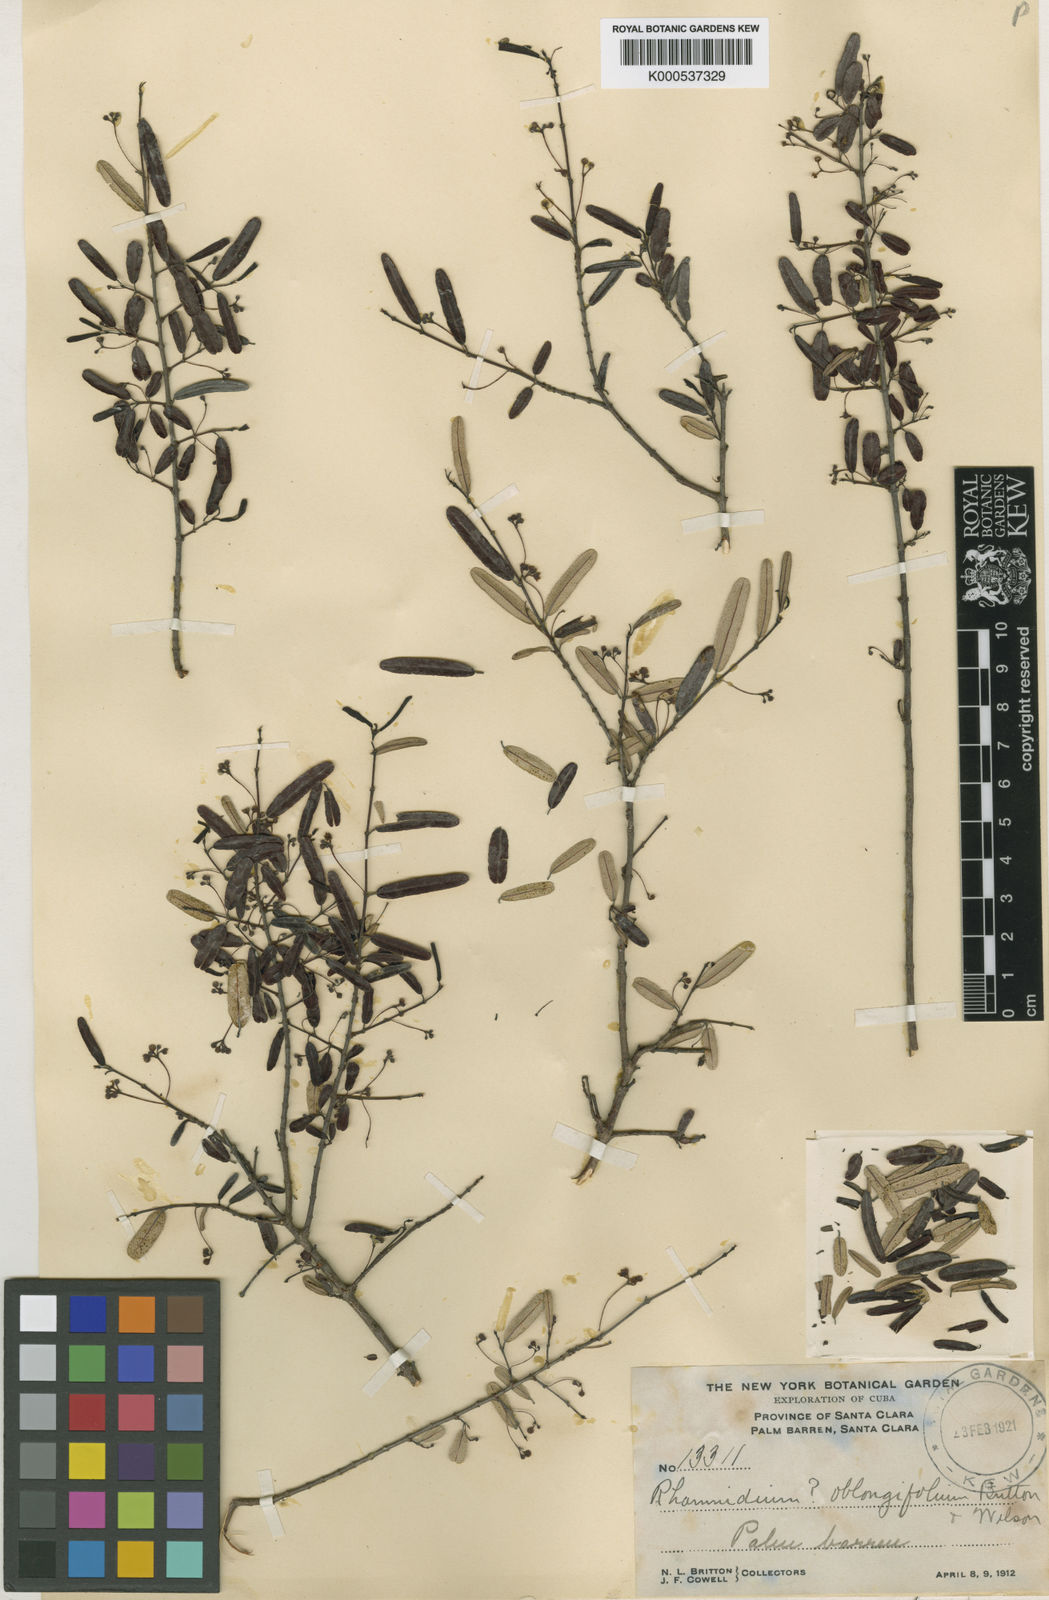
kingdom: Plantae
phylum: Tracheophyta
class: Magnoliopsida
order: Rosales
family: Rhamnaceae
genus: Rhamnidium
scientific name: Rhamnidium elaeocarpum
